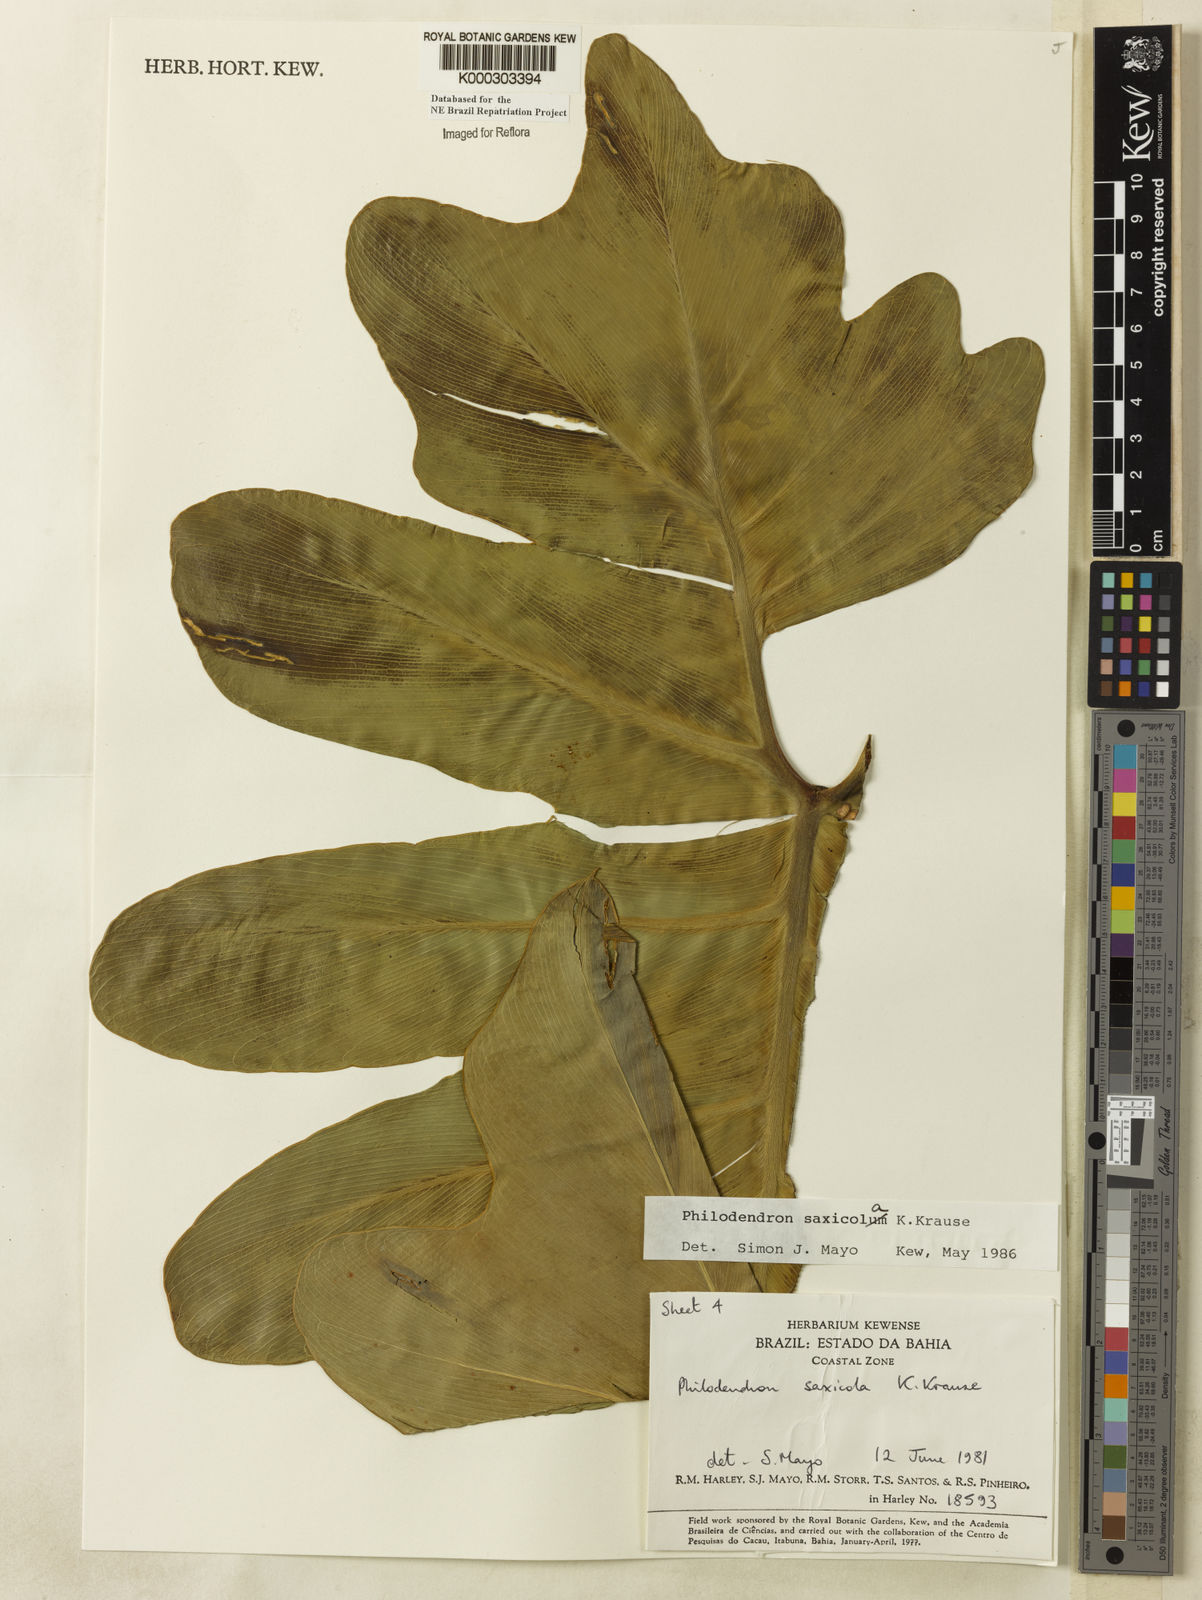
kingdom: Plantae
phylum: Tracheophyta
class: Liliopsida
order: Alismatales
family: Araceae
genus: Thaumatophyllum
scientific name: Thaumatophyllum saxicola
